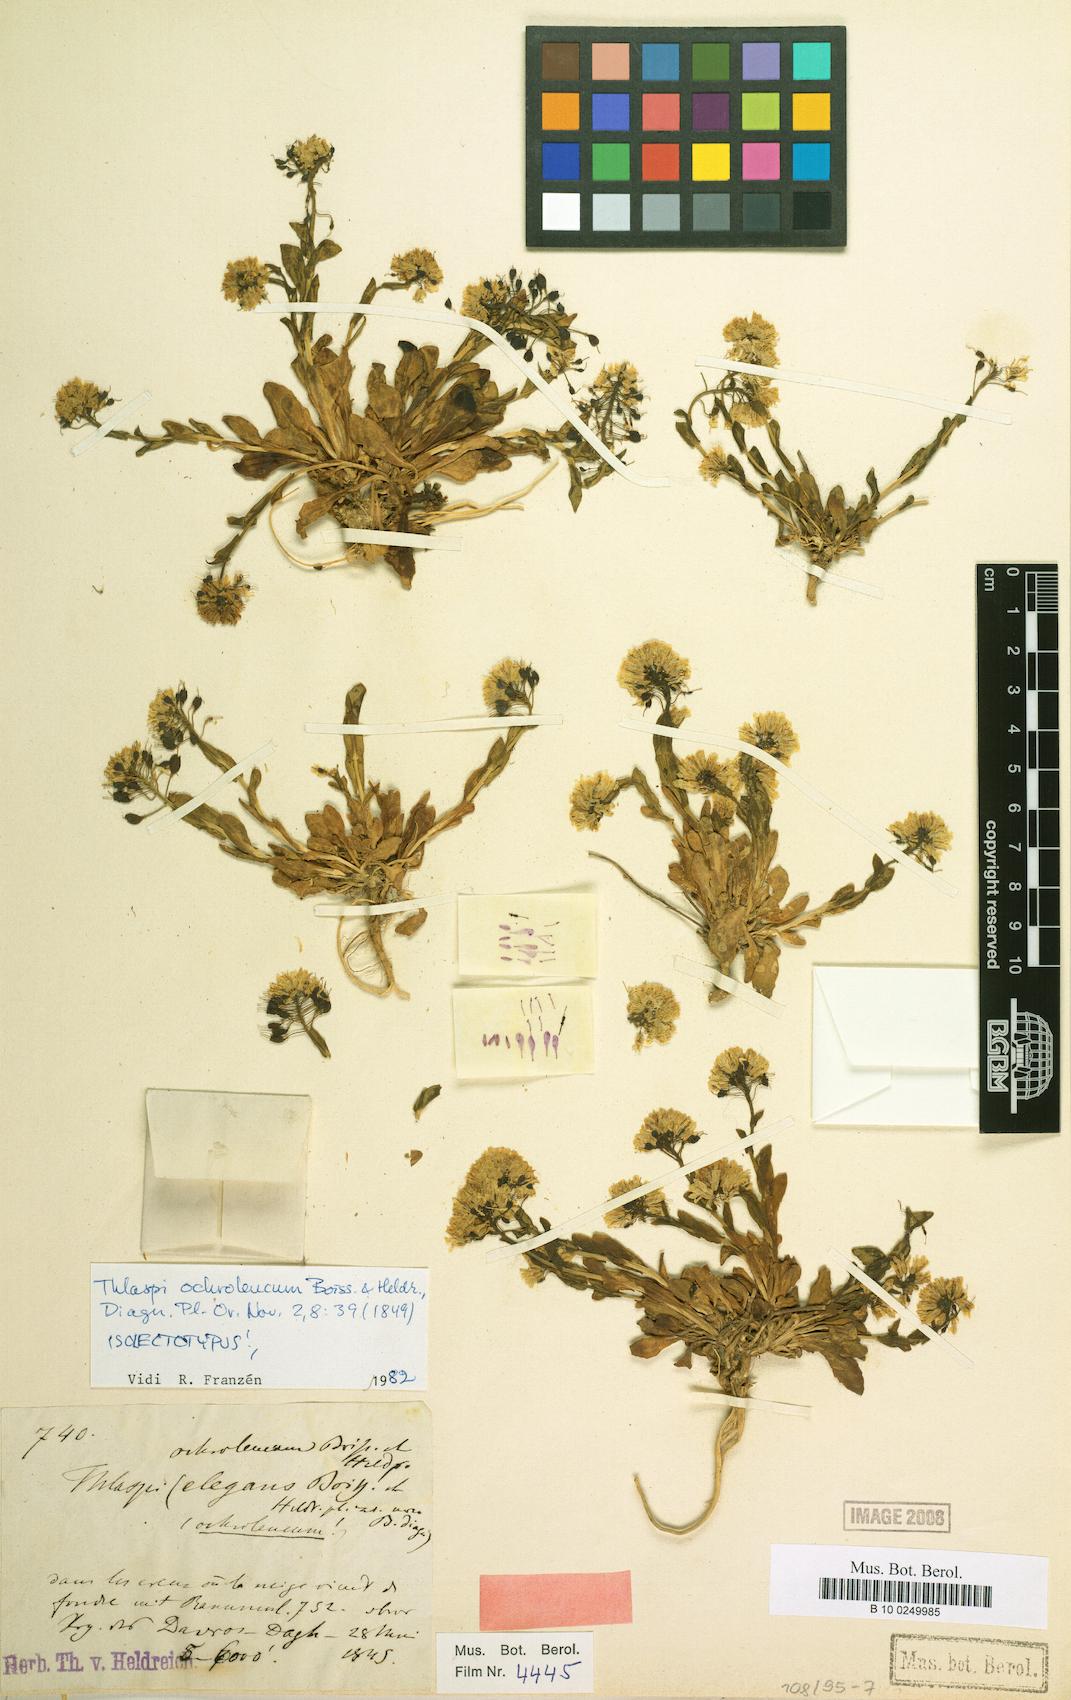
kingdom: Plantae
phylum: Tracheophyta
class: Magnoliopsida
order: Brassicales
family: Brassicaceae
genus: Noccaea
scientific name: Noccaea ochroleuca
